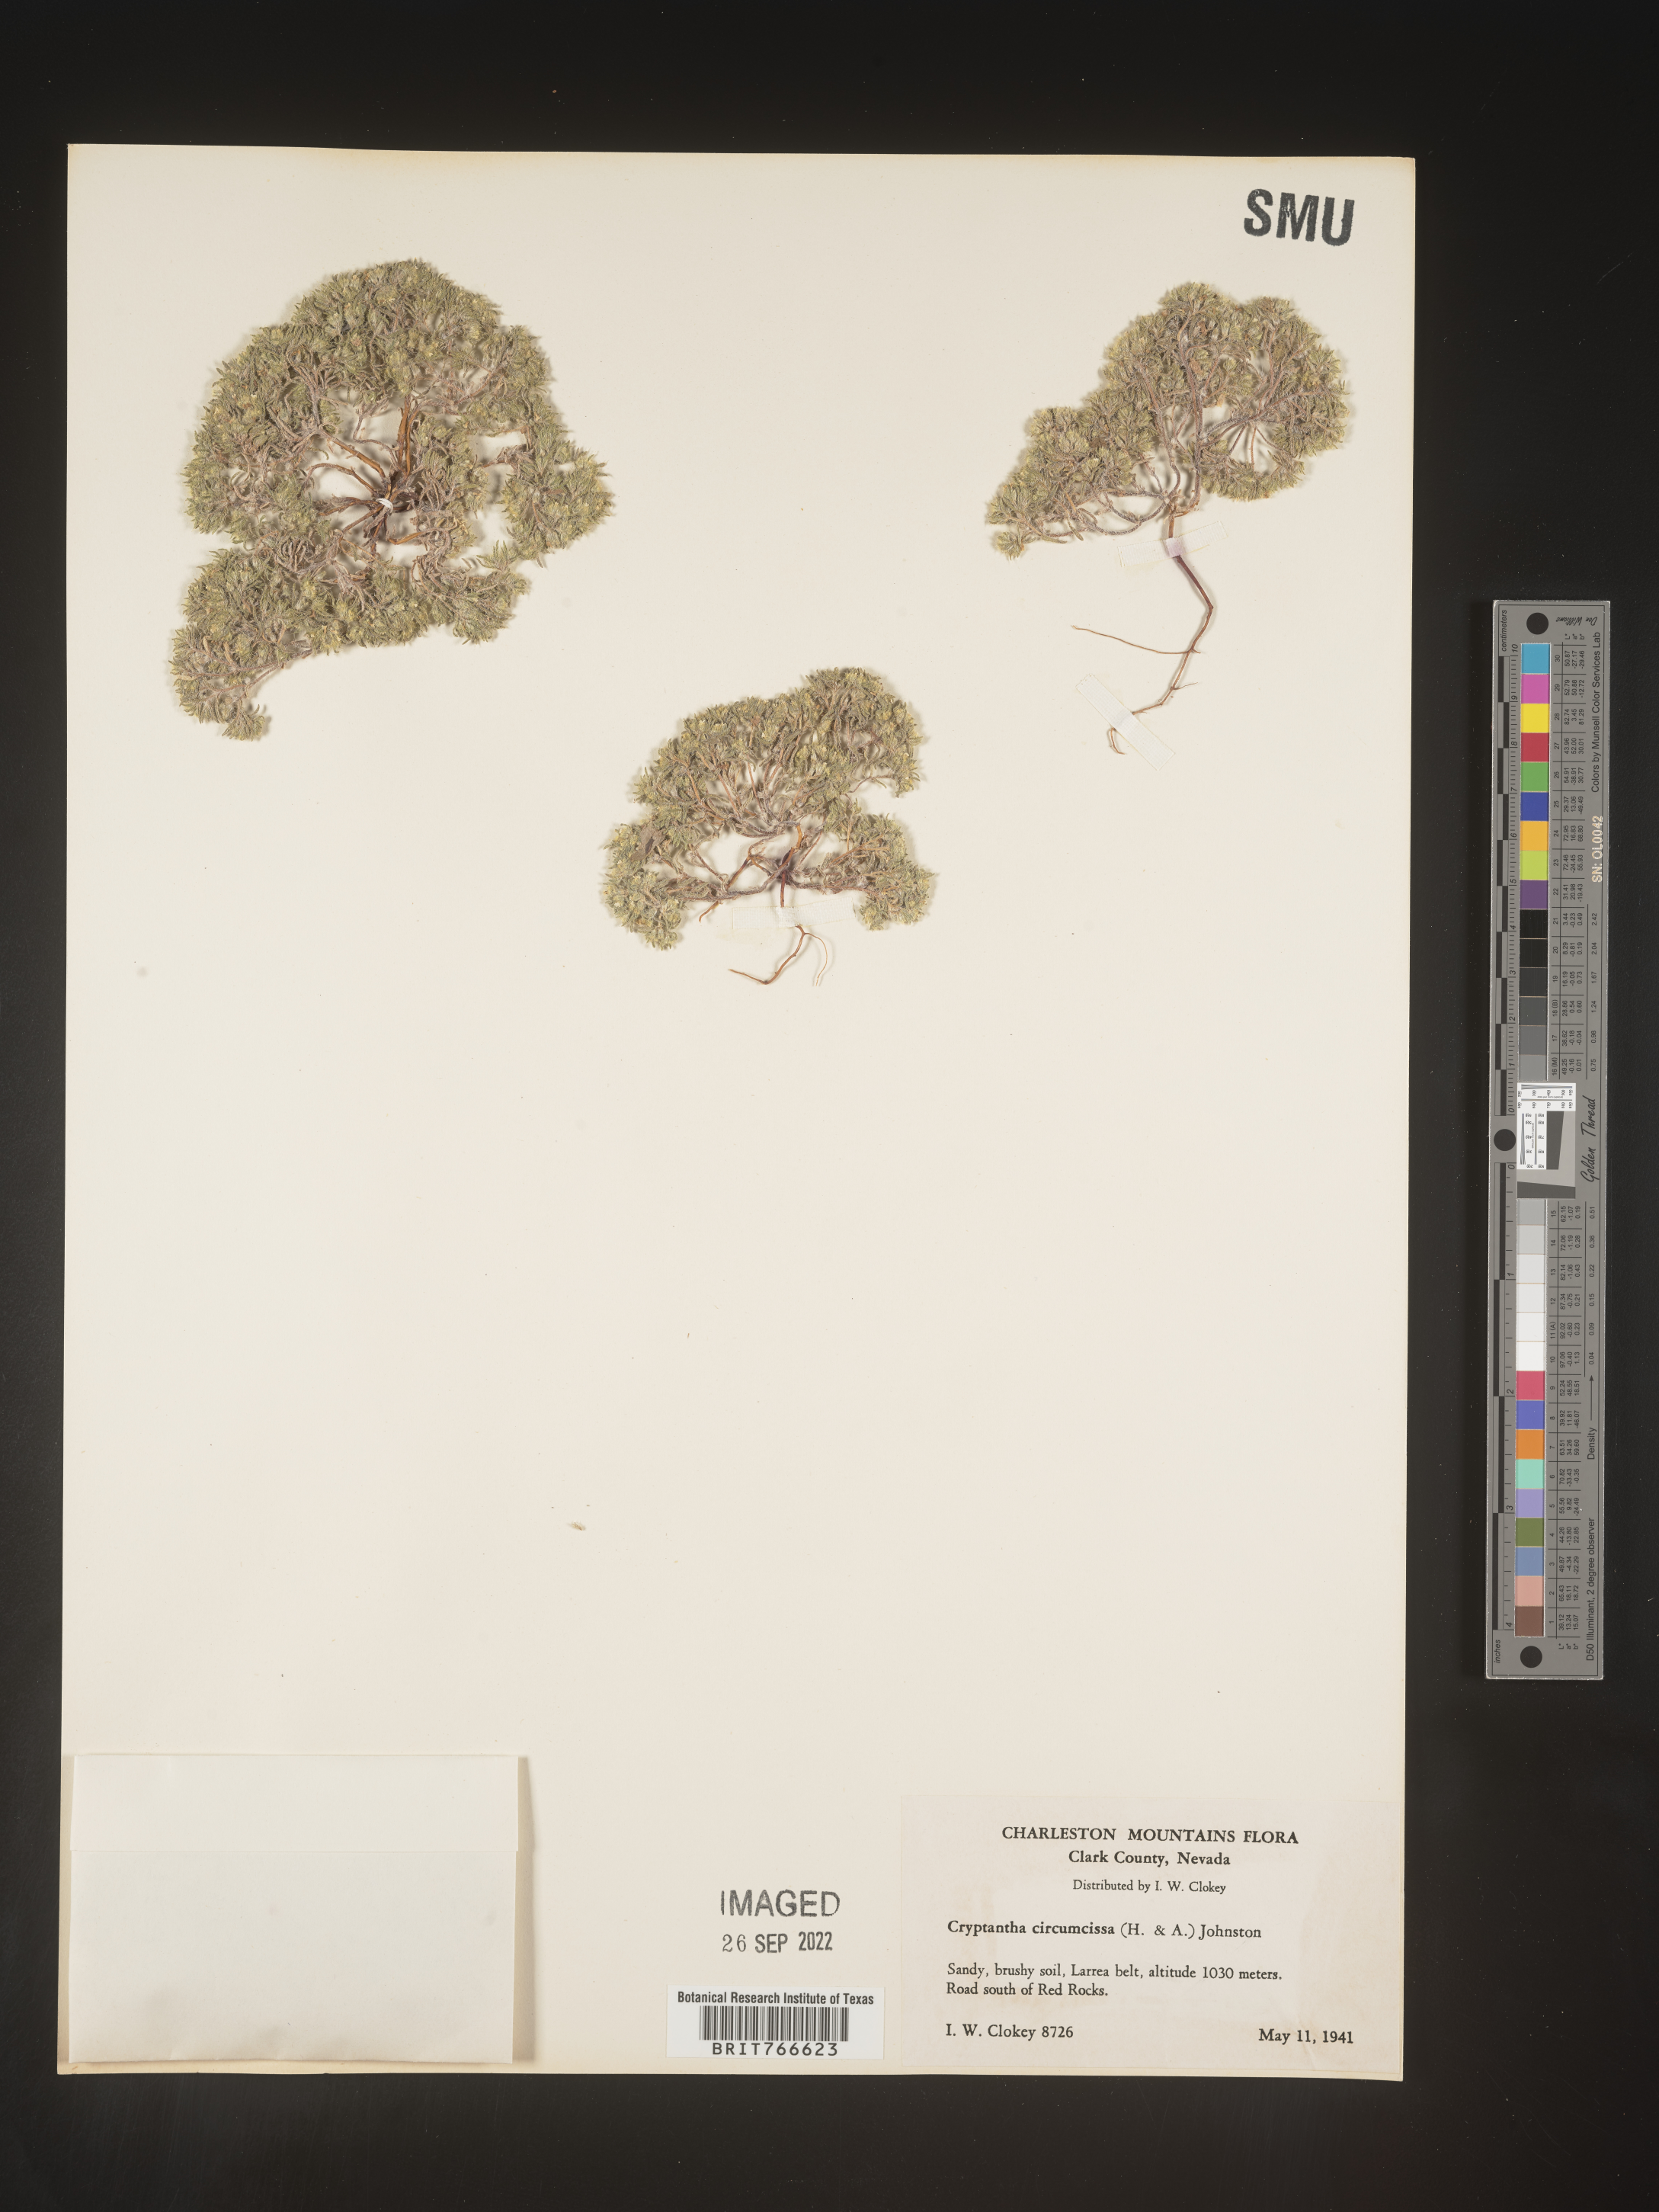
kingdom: Plantae
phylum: Tracheophyta
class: Magnoliopsida
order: Boraginales
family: Boraginaceae
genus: Cryptantha
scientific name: Cryptantha
